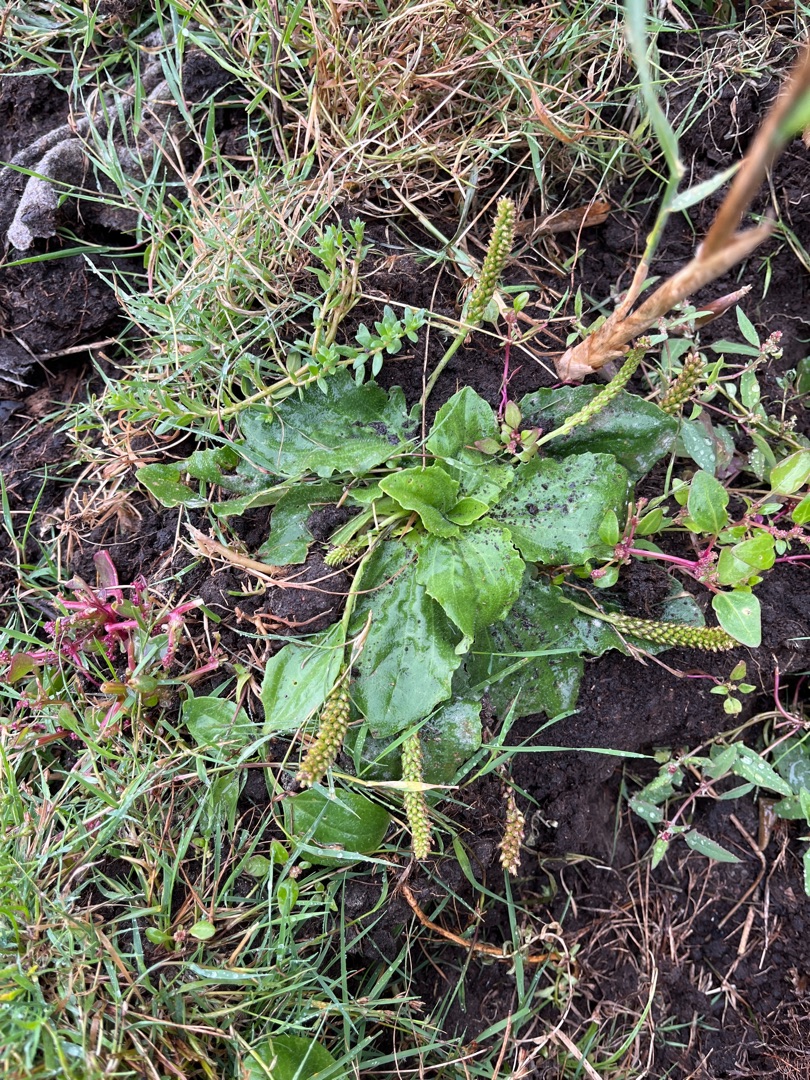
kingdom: Plantae
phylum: Tracheophyta
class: Magnoliopsida
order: Lamiales
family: Plantaginaceae
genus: Plantago
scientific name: Plantago uliginosa
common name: Ager-vejbred
